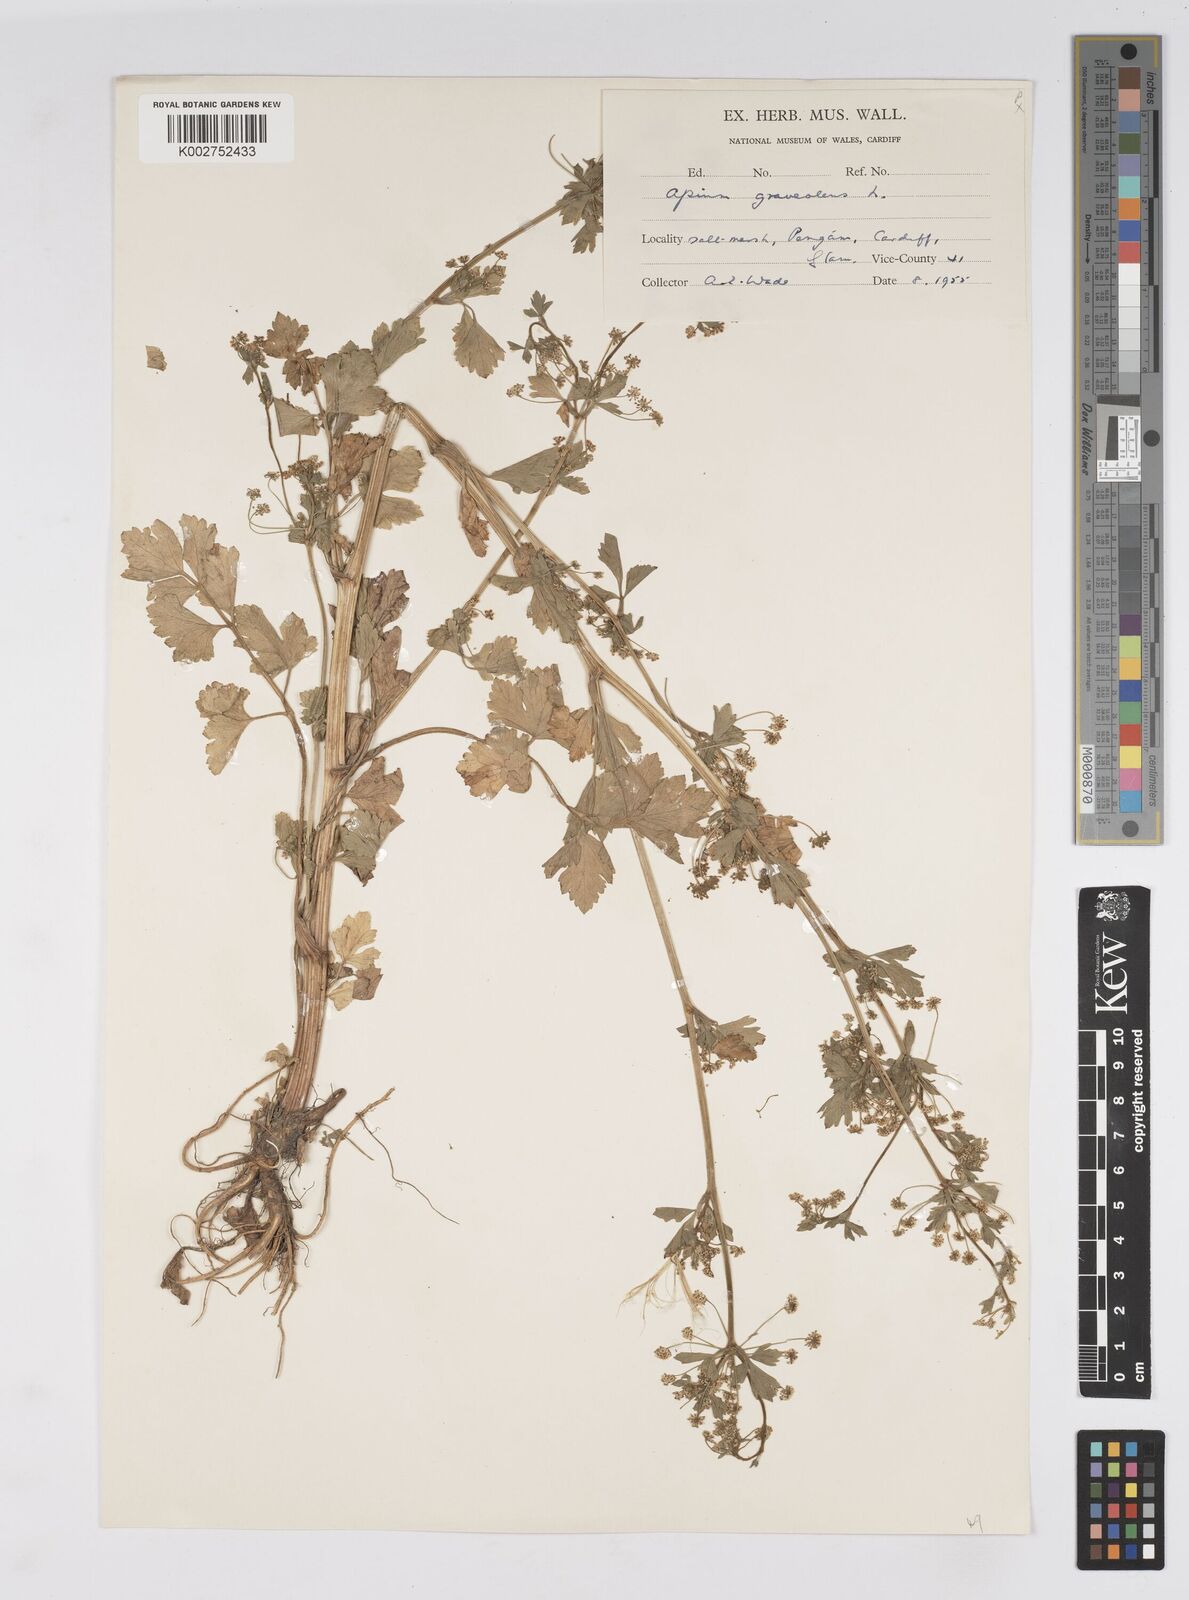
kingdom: Plantae
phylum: Tracheophyta
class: Magnoliopsida
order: Apiales
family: Apiaceae
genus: Apium
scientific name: Apium graveolens
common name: Wild celery
